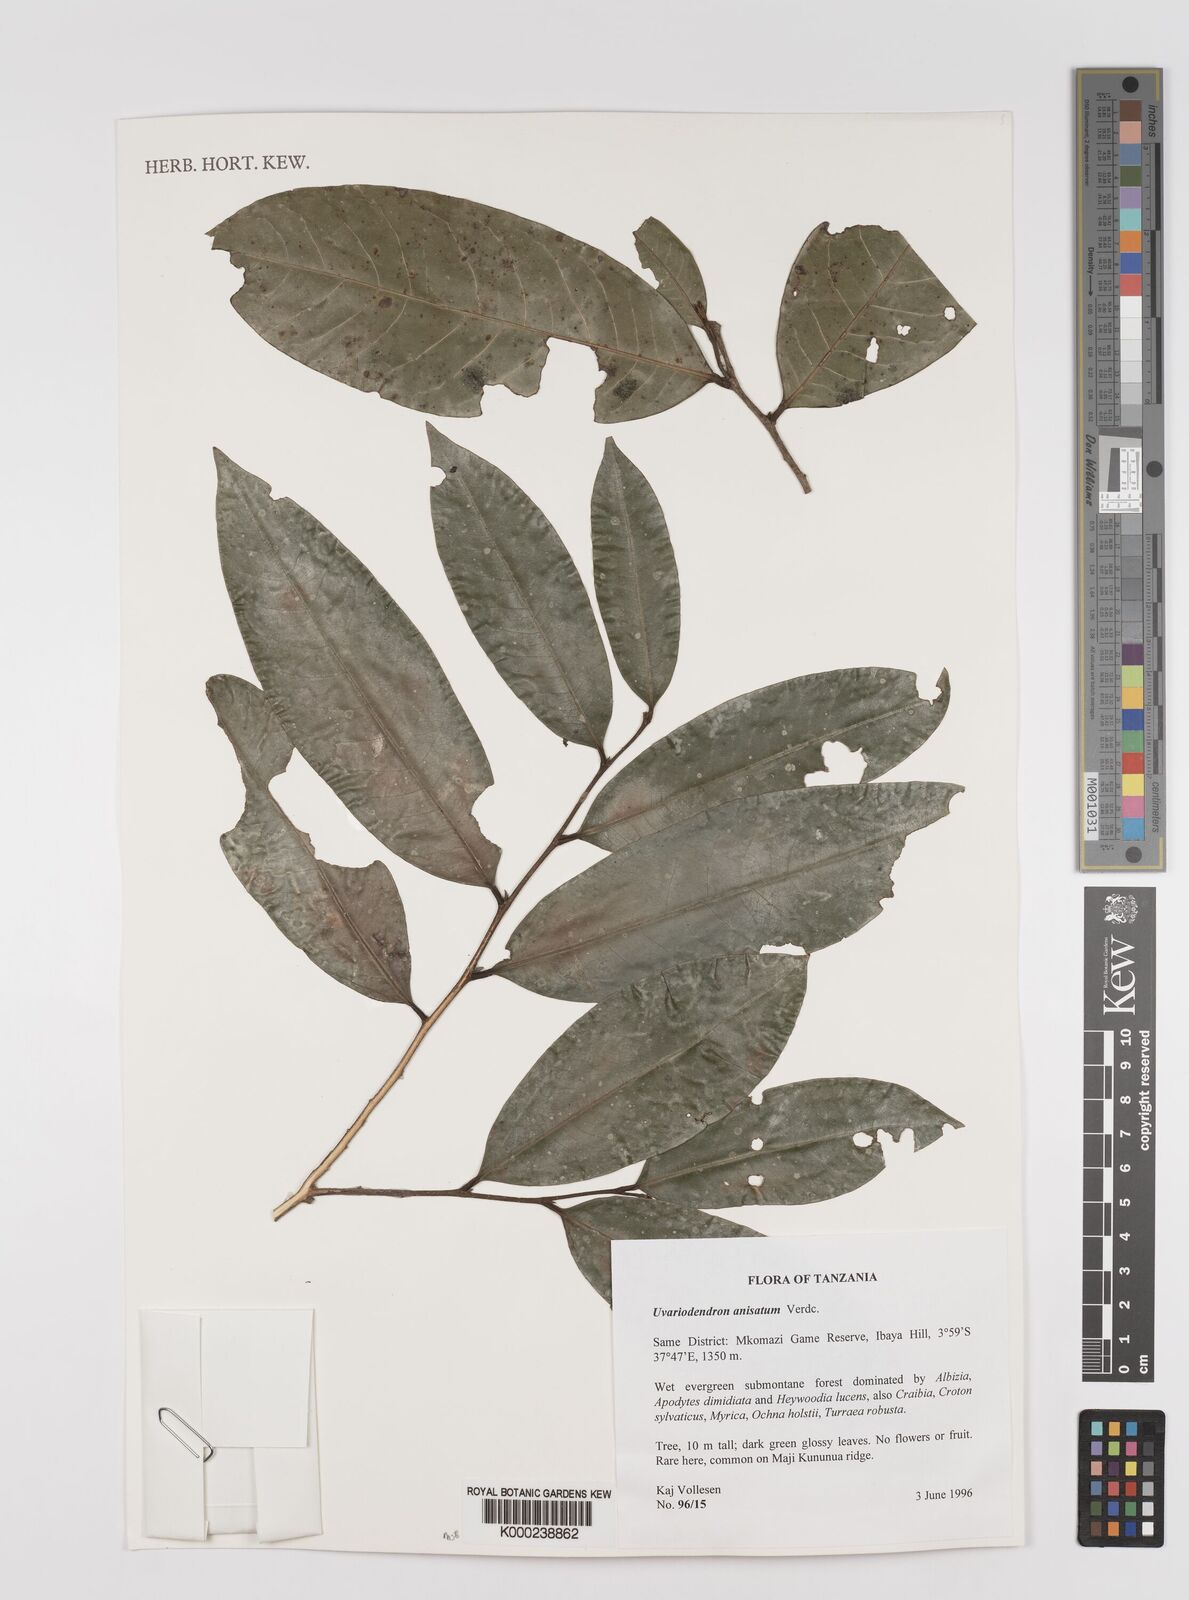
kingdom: Plantae
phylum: Tracheophyta
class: Magnoliopsida
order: Magnoliales
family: Annonaceae
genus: Uvariodendron
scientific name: Uvariodendron anisatum
